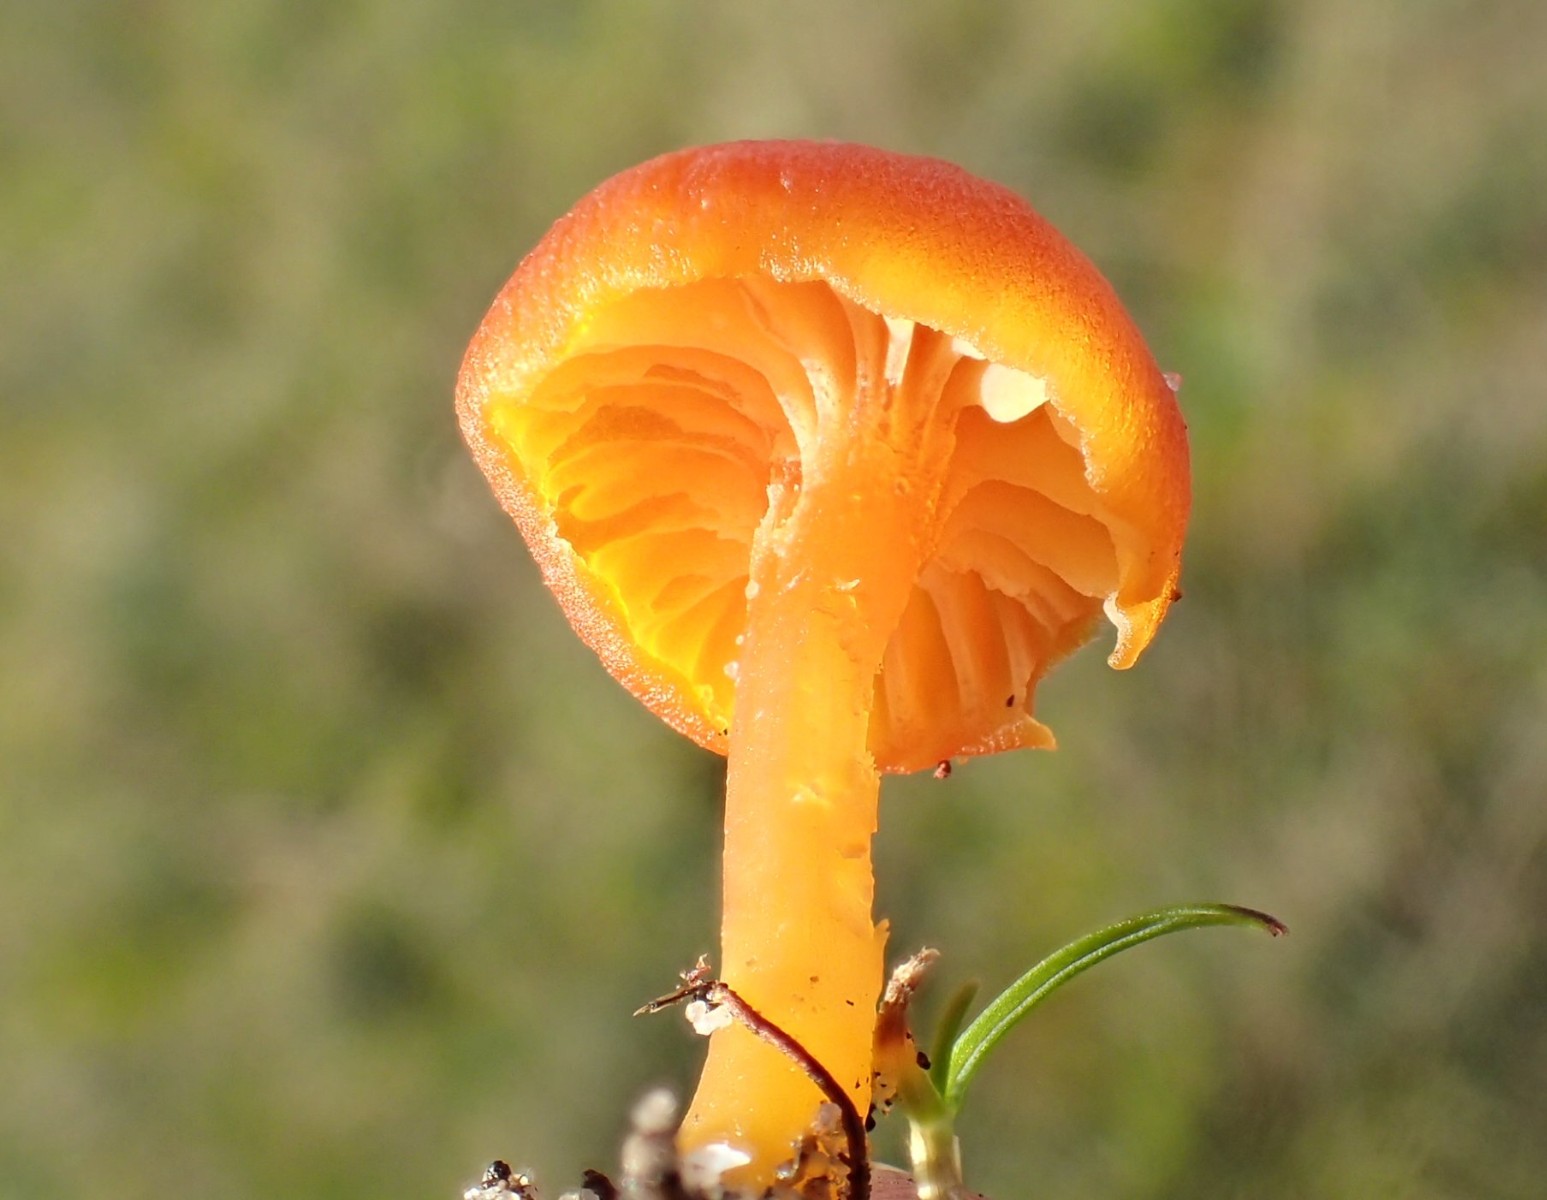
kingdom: Fungi
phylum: Basidiomycota
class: Agaricomycetes
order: Agaricales
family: Hygrophoraceae
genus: Hygrocybe
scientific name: Hygrocybe cantharellus
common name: kantarel-vokshat
